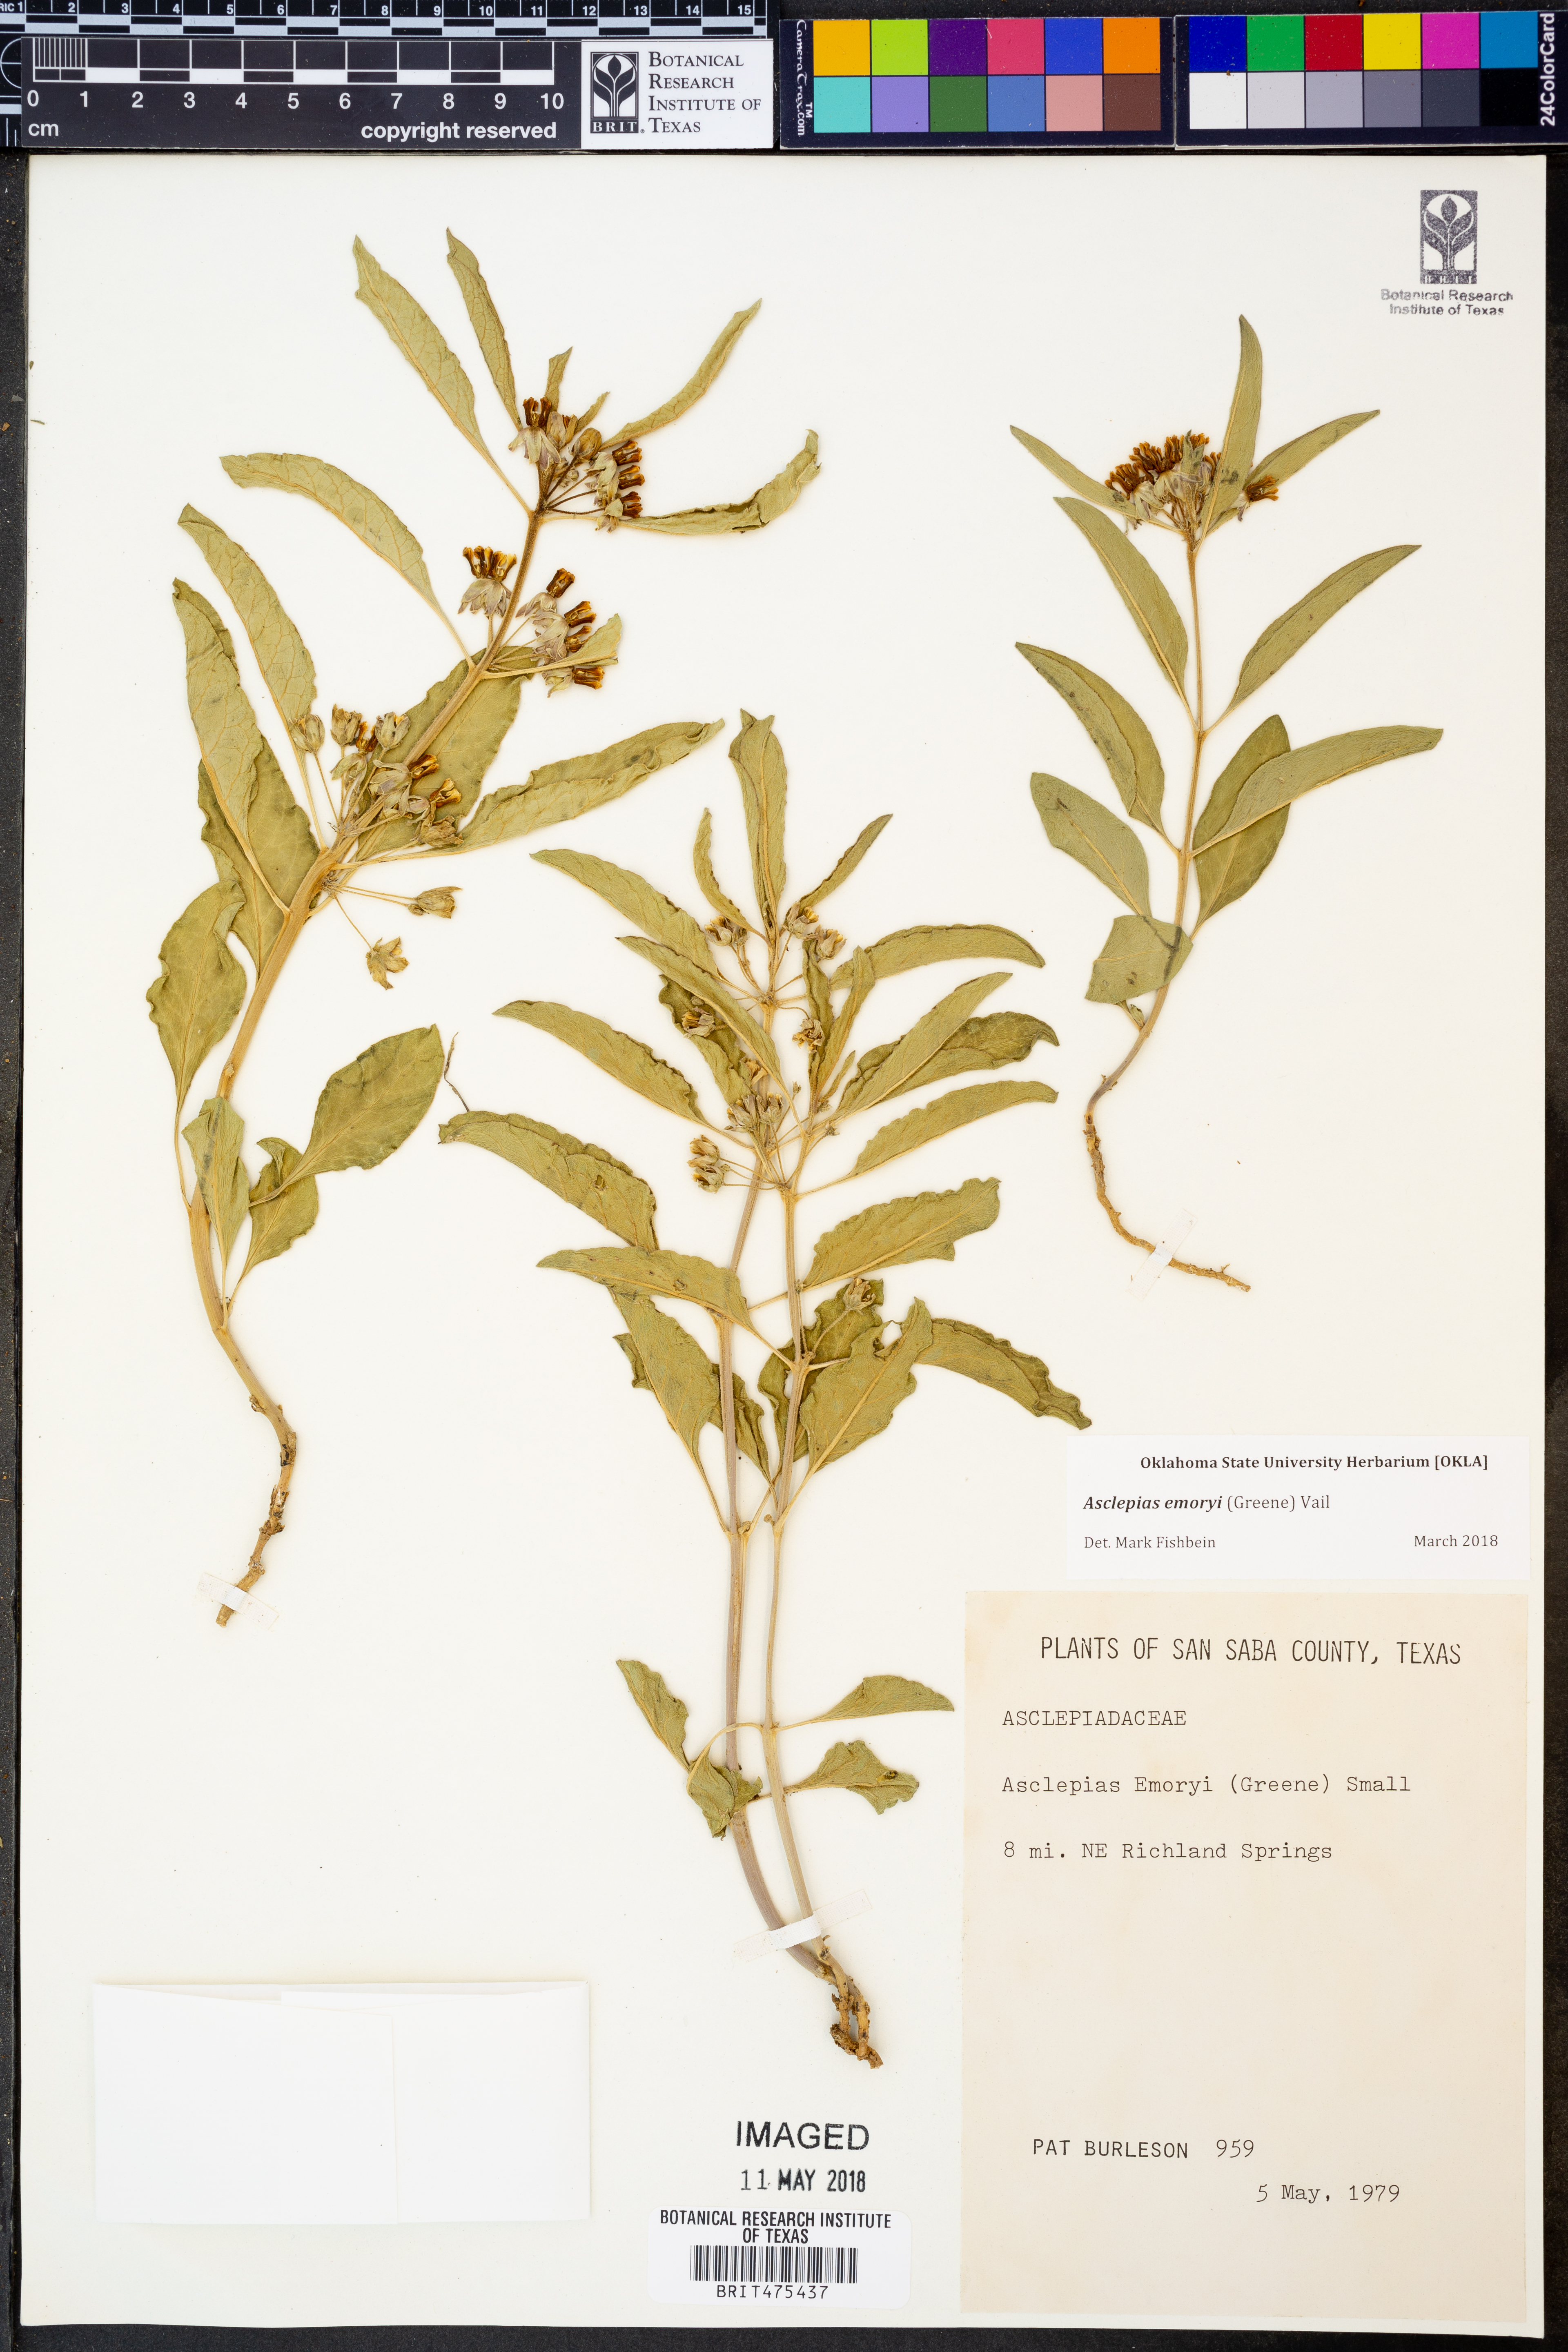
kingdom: Plantae
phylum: Tracheophyta
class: Magnoliopsida
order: Gentianales
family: Apocynaceae
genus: Asclepias
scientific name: Asclepias emoryi
